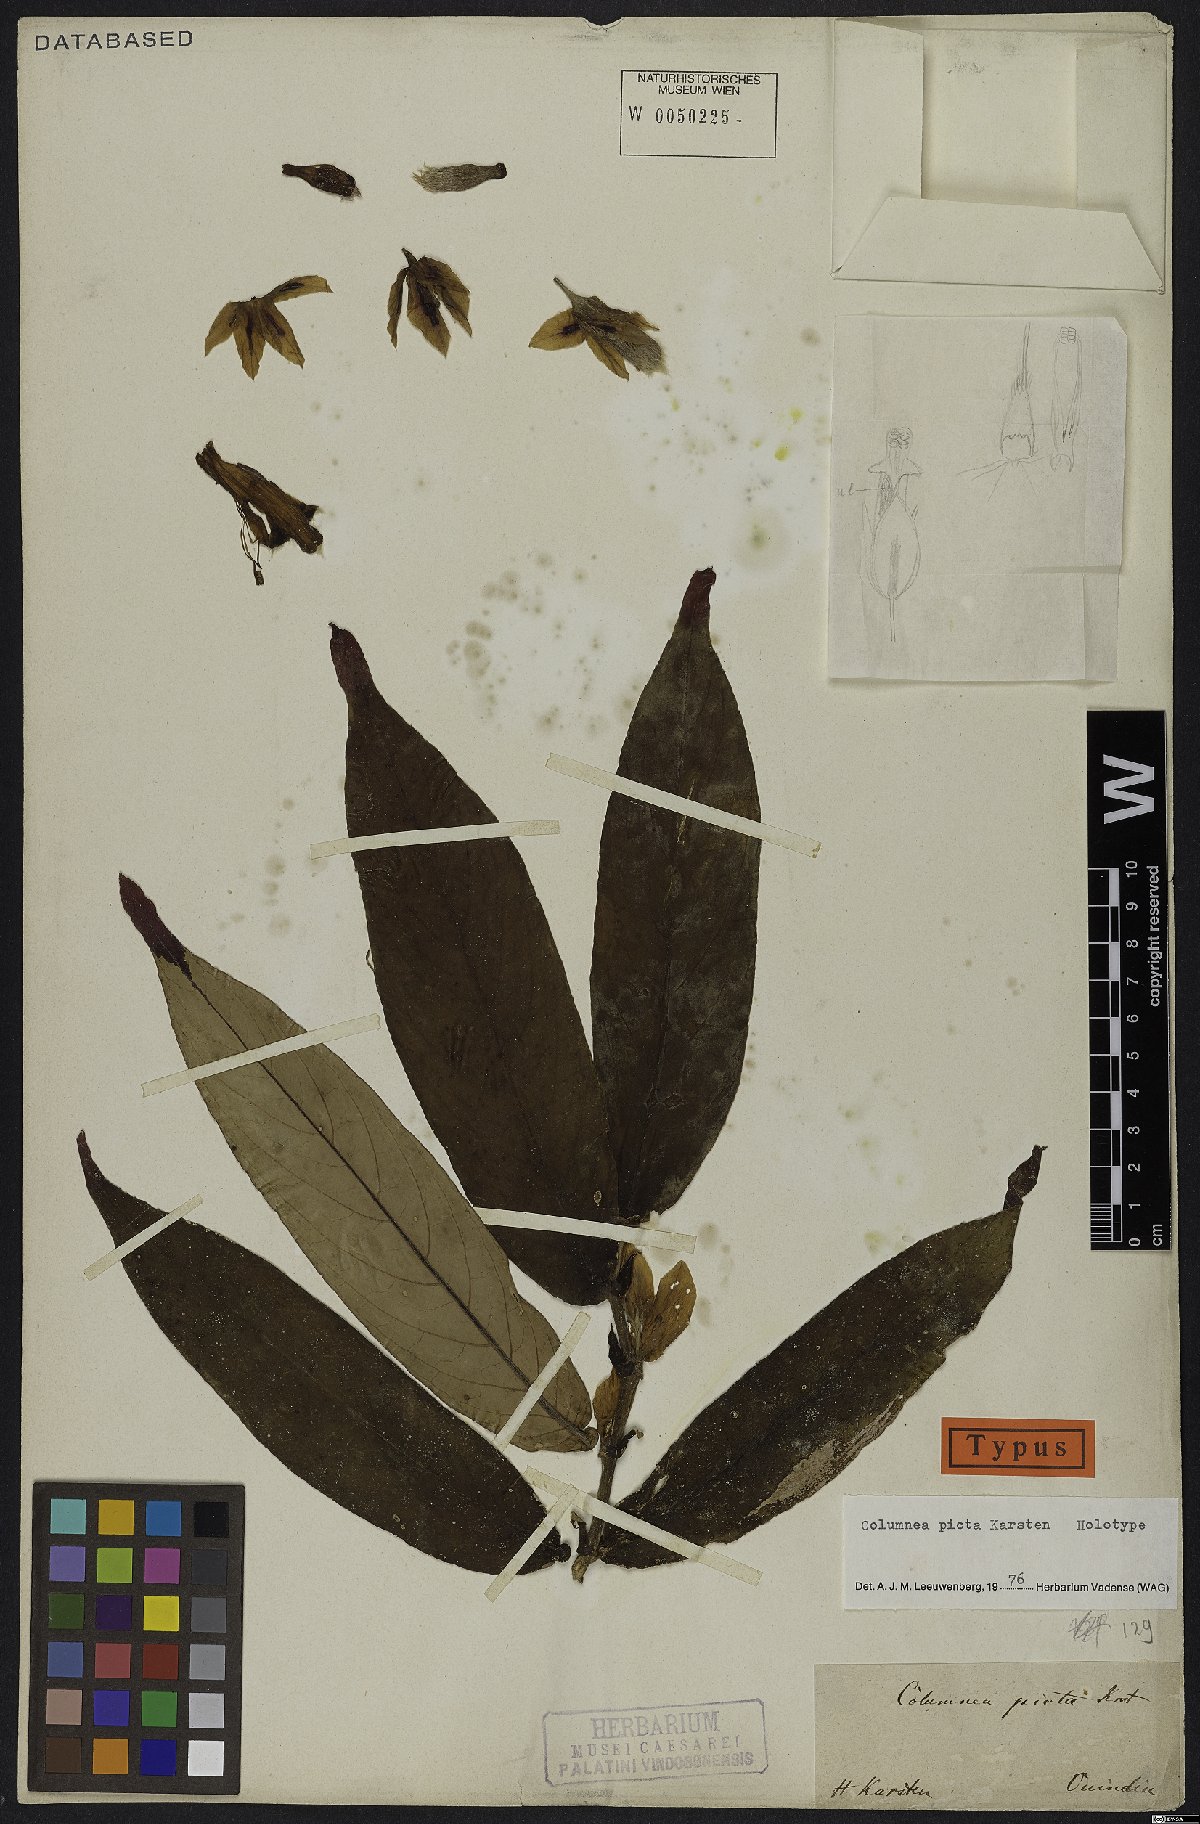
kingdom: Plantae
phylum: Tracheophyta
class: Magnoliopsida
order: Lamiales
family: Gesneriaceae
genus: Columnea
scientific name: Columnea picta
